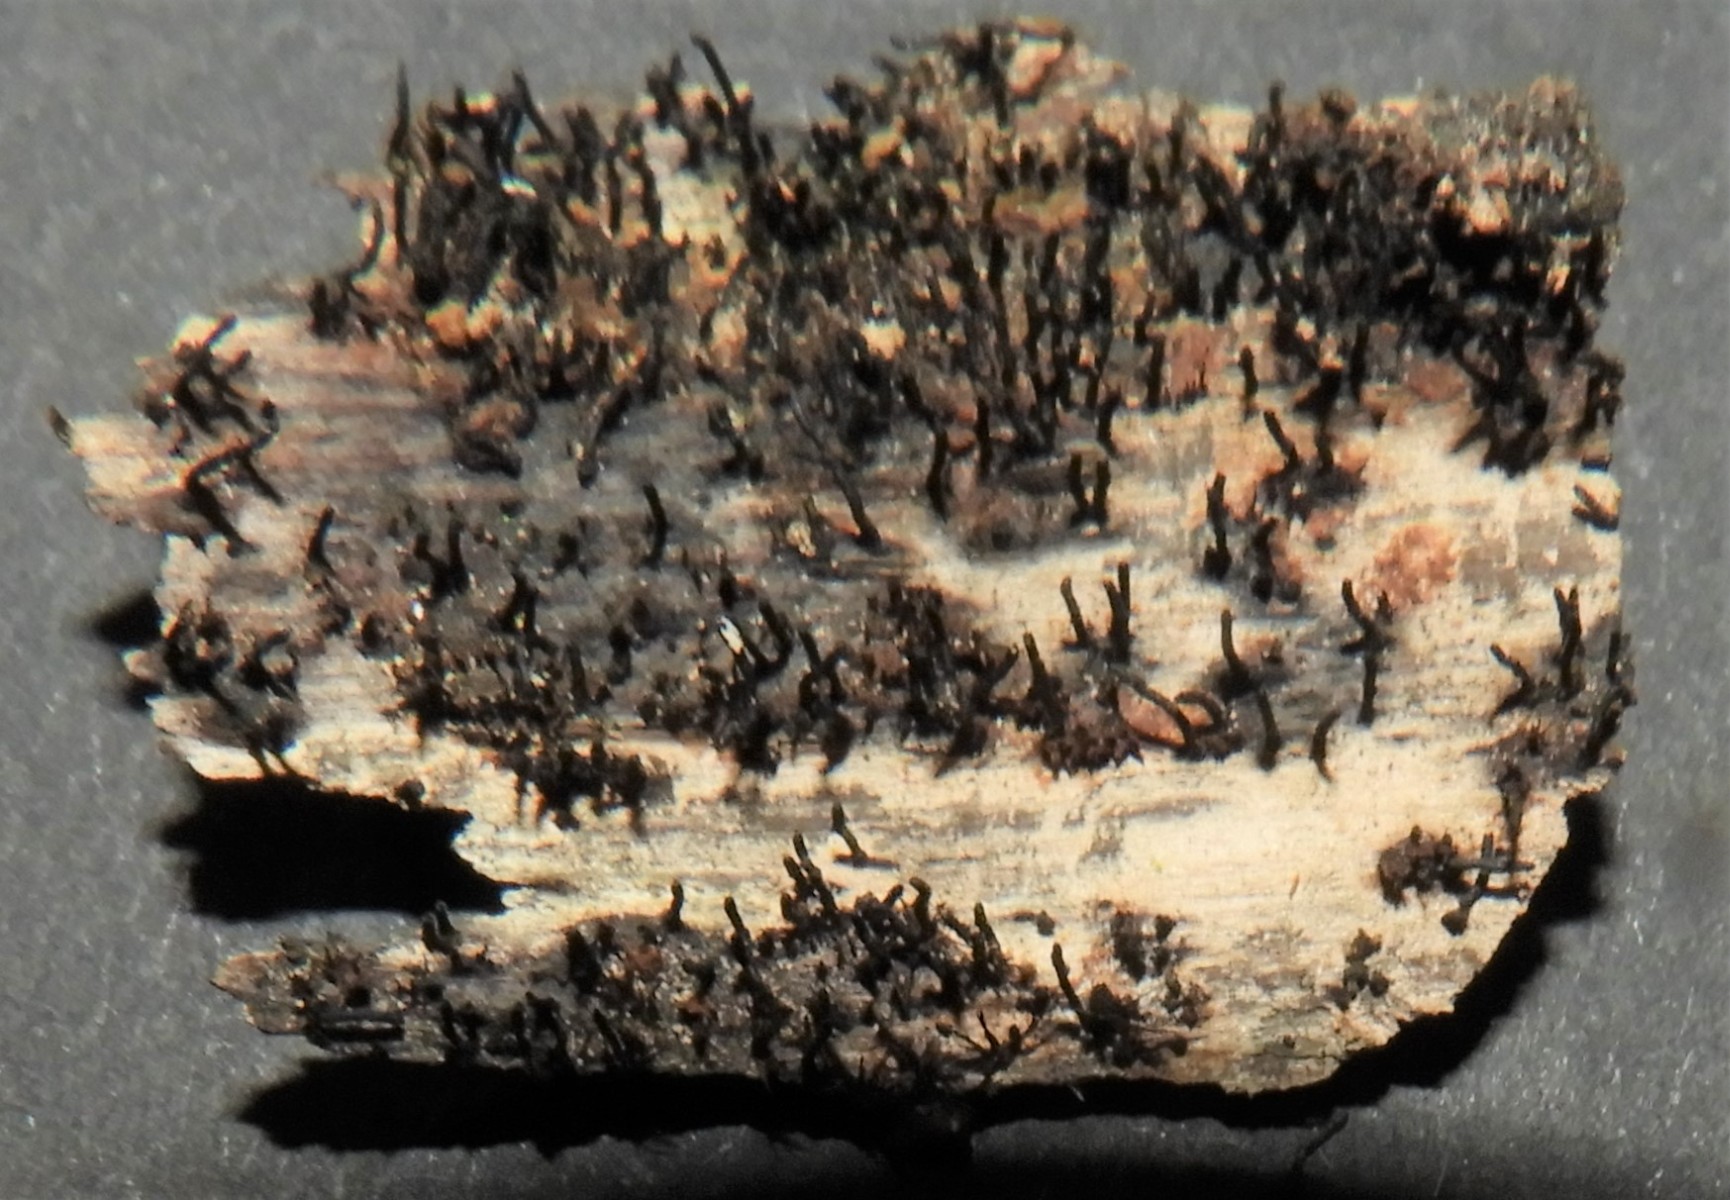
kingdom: Fungi
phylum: Ascomycota
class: Sordariomycetes
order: Xylariales
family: Diatrypaceae
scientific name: Diatrypaceae
